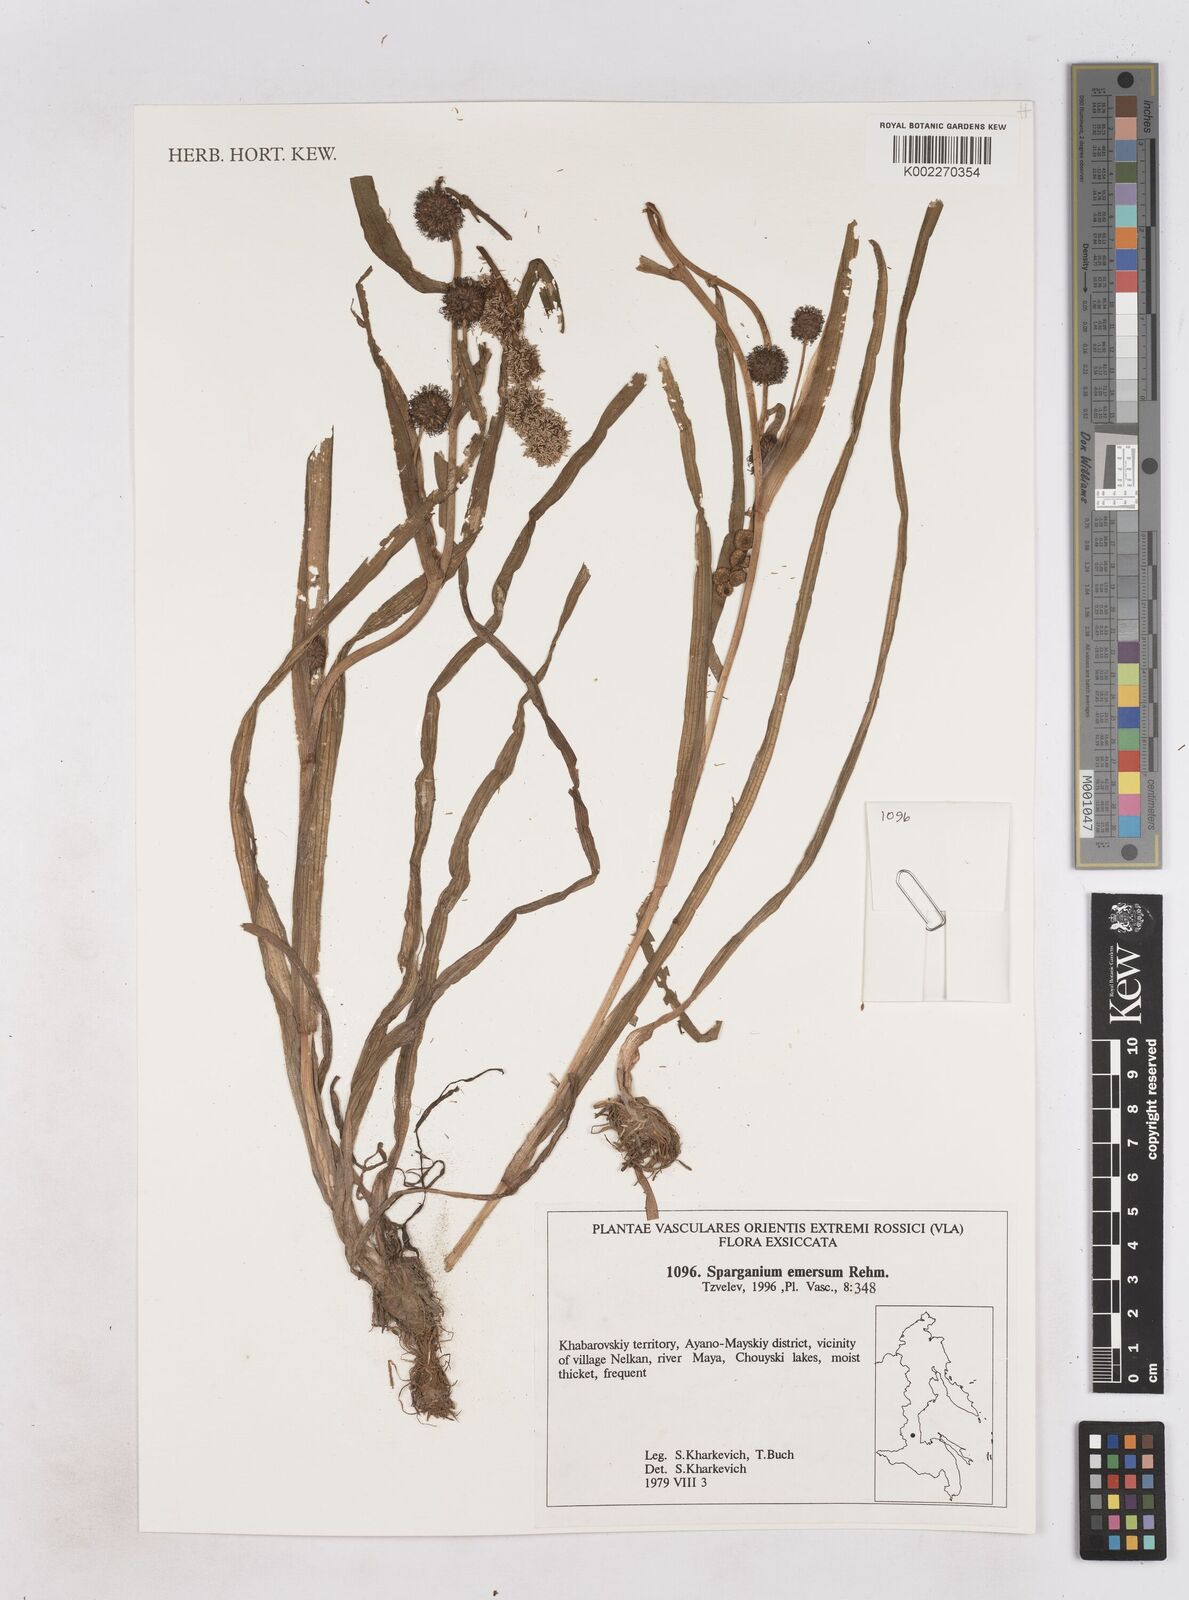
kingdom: Plantae
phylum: Tracheophyta
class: Liliopsida
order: Poales
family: Typhaceae
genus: Sparganium
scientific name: Sparganium emersum
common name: Unbranched bur-reed
